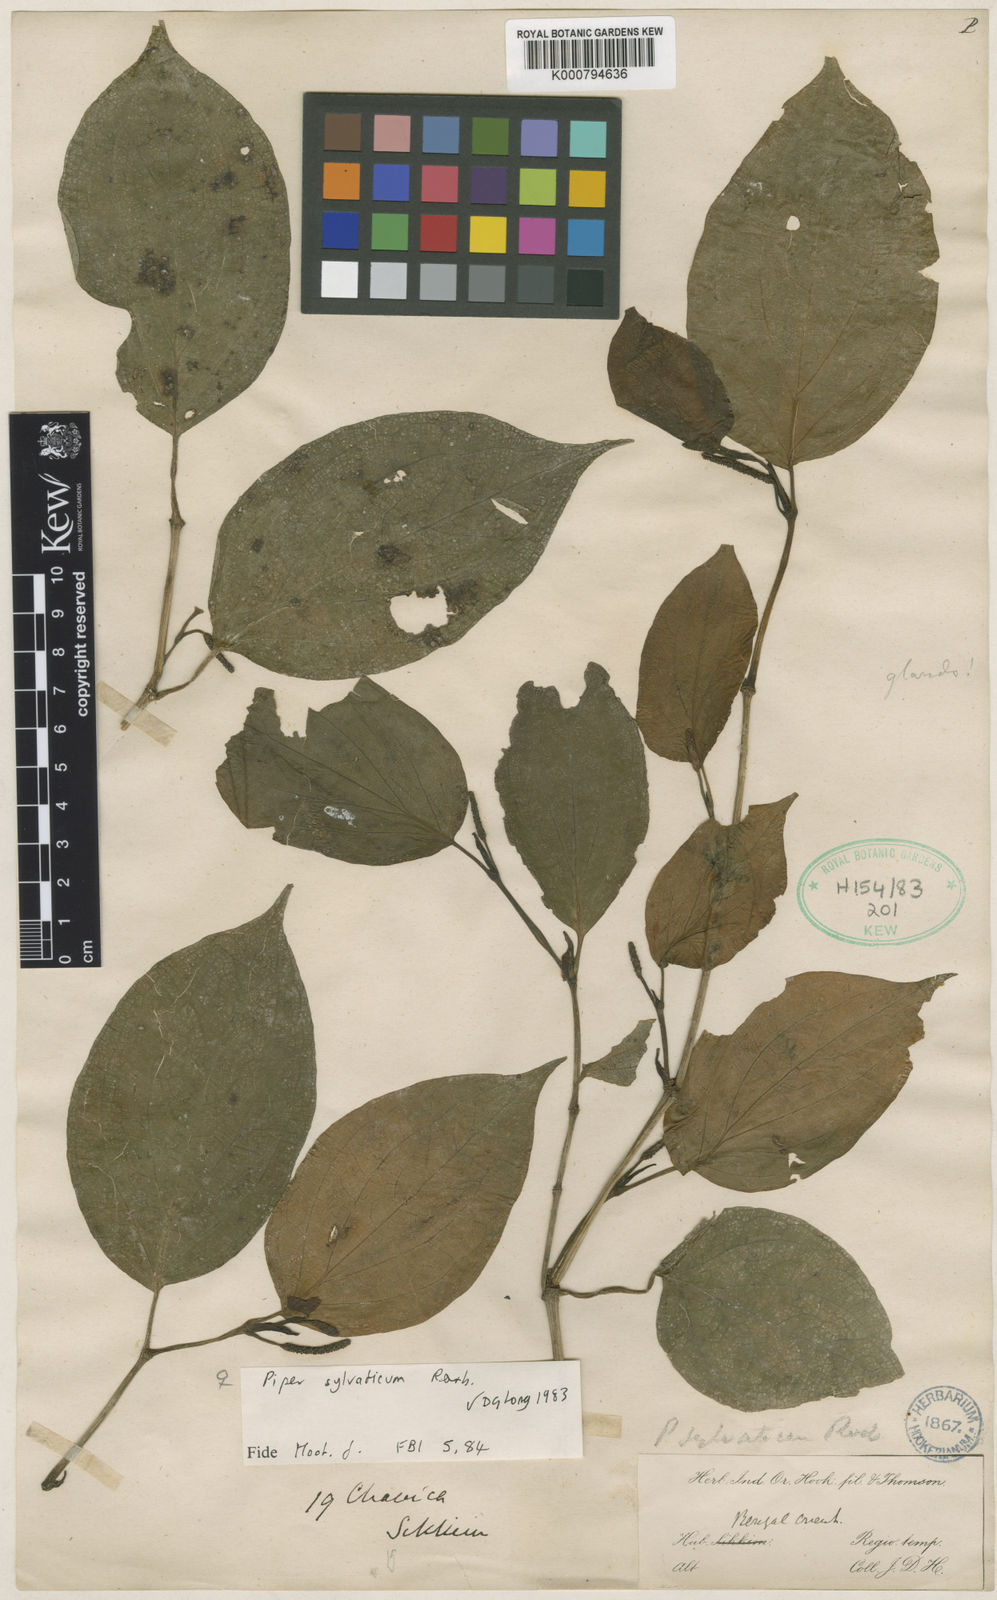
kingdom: Plantae
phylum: Tracheophyta
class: Magnoliopsida
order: Piperales
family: Piperaceae
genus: Piper
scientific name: Piper sylvaticum
